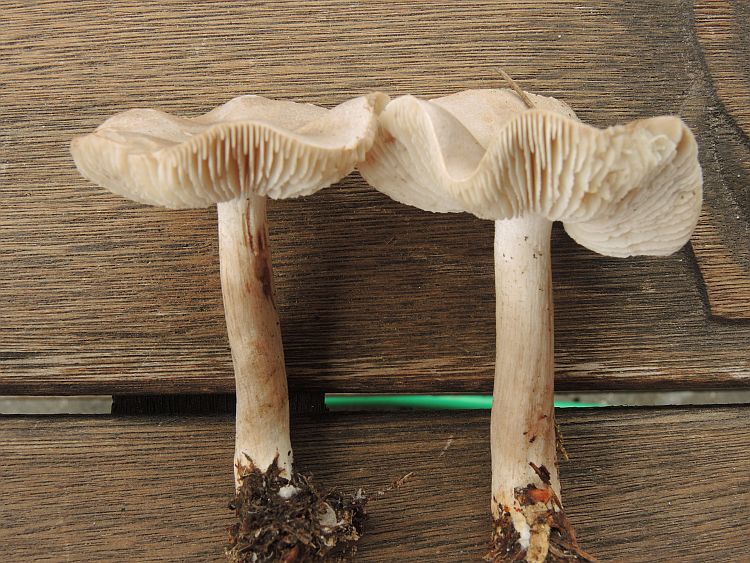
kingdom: Fungi
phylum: Basidiomycota
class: Agaricomycetes
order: Agaricales
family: Tricholomataceae
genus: Tricholoma
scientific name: Tricholoma virgatum
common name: nålestribet ridderhat
